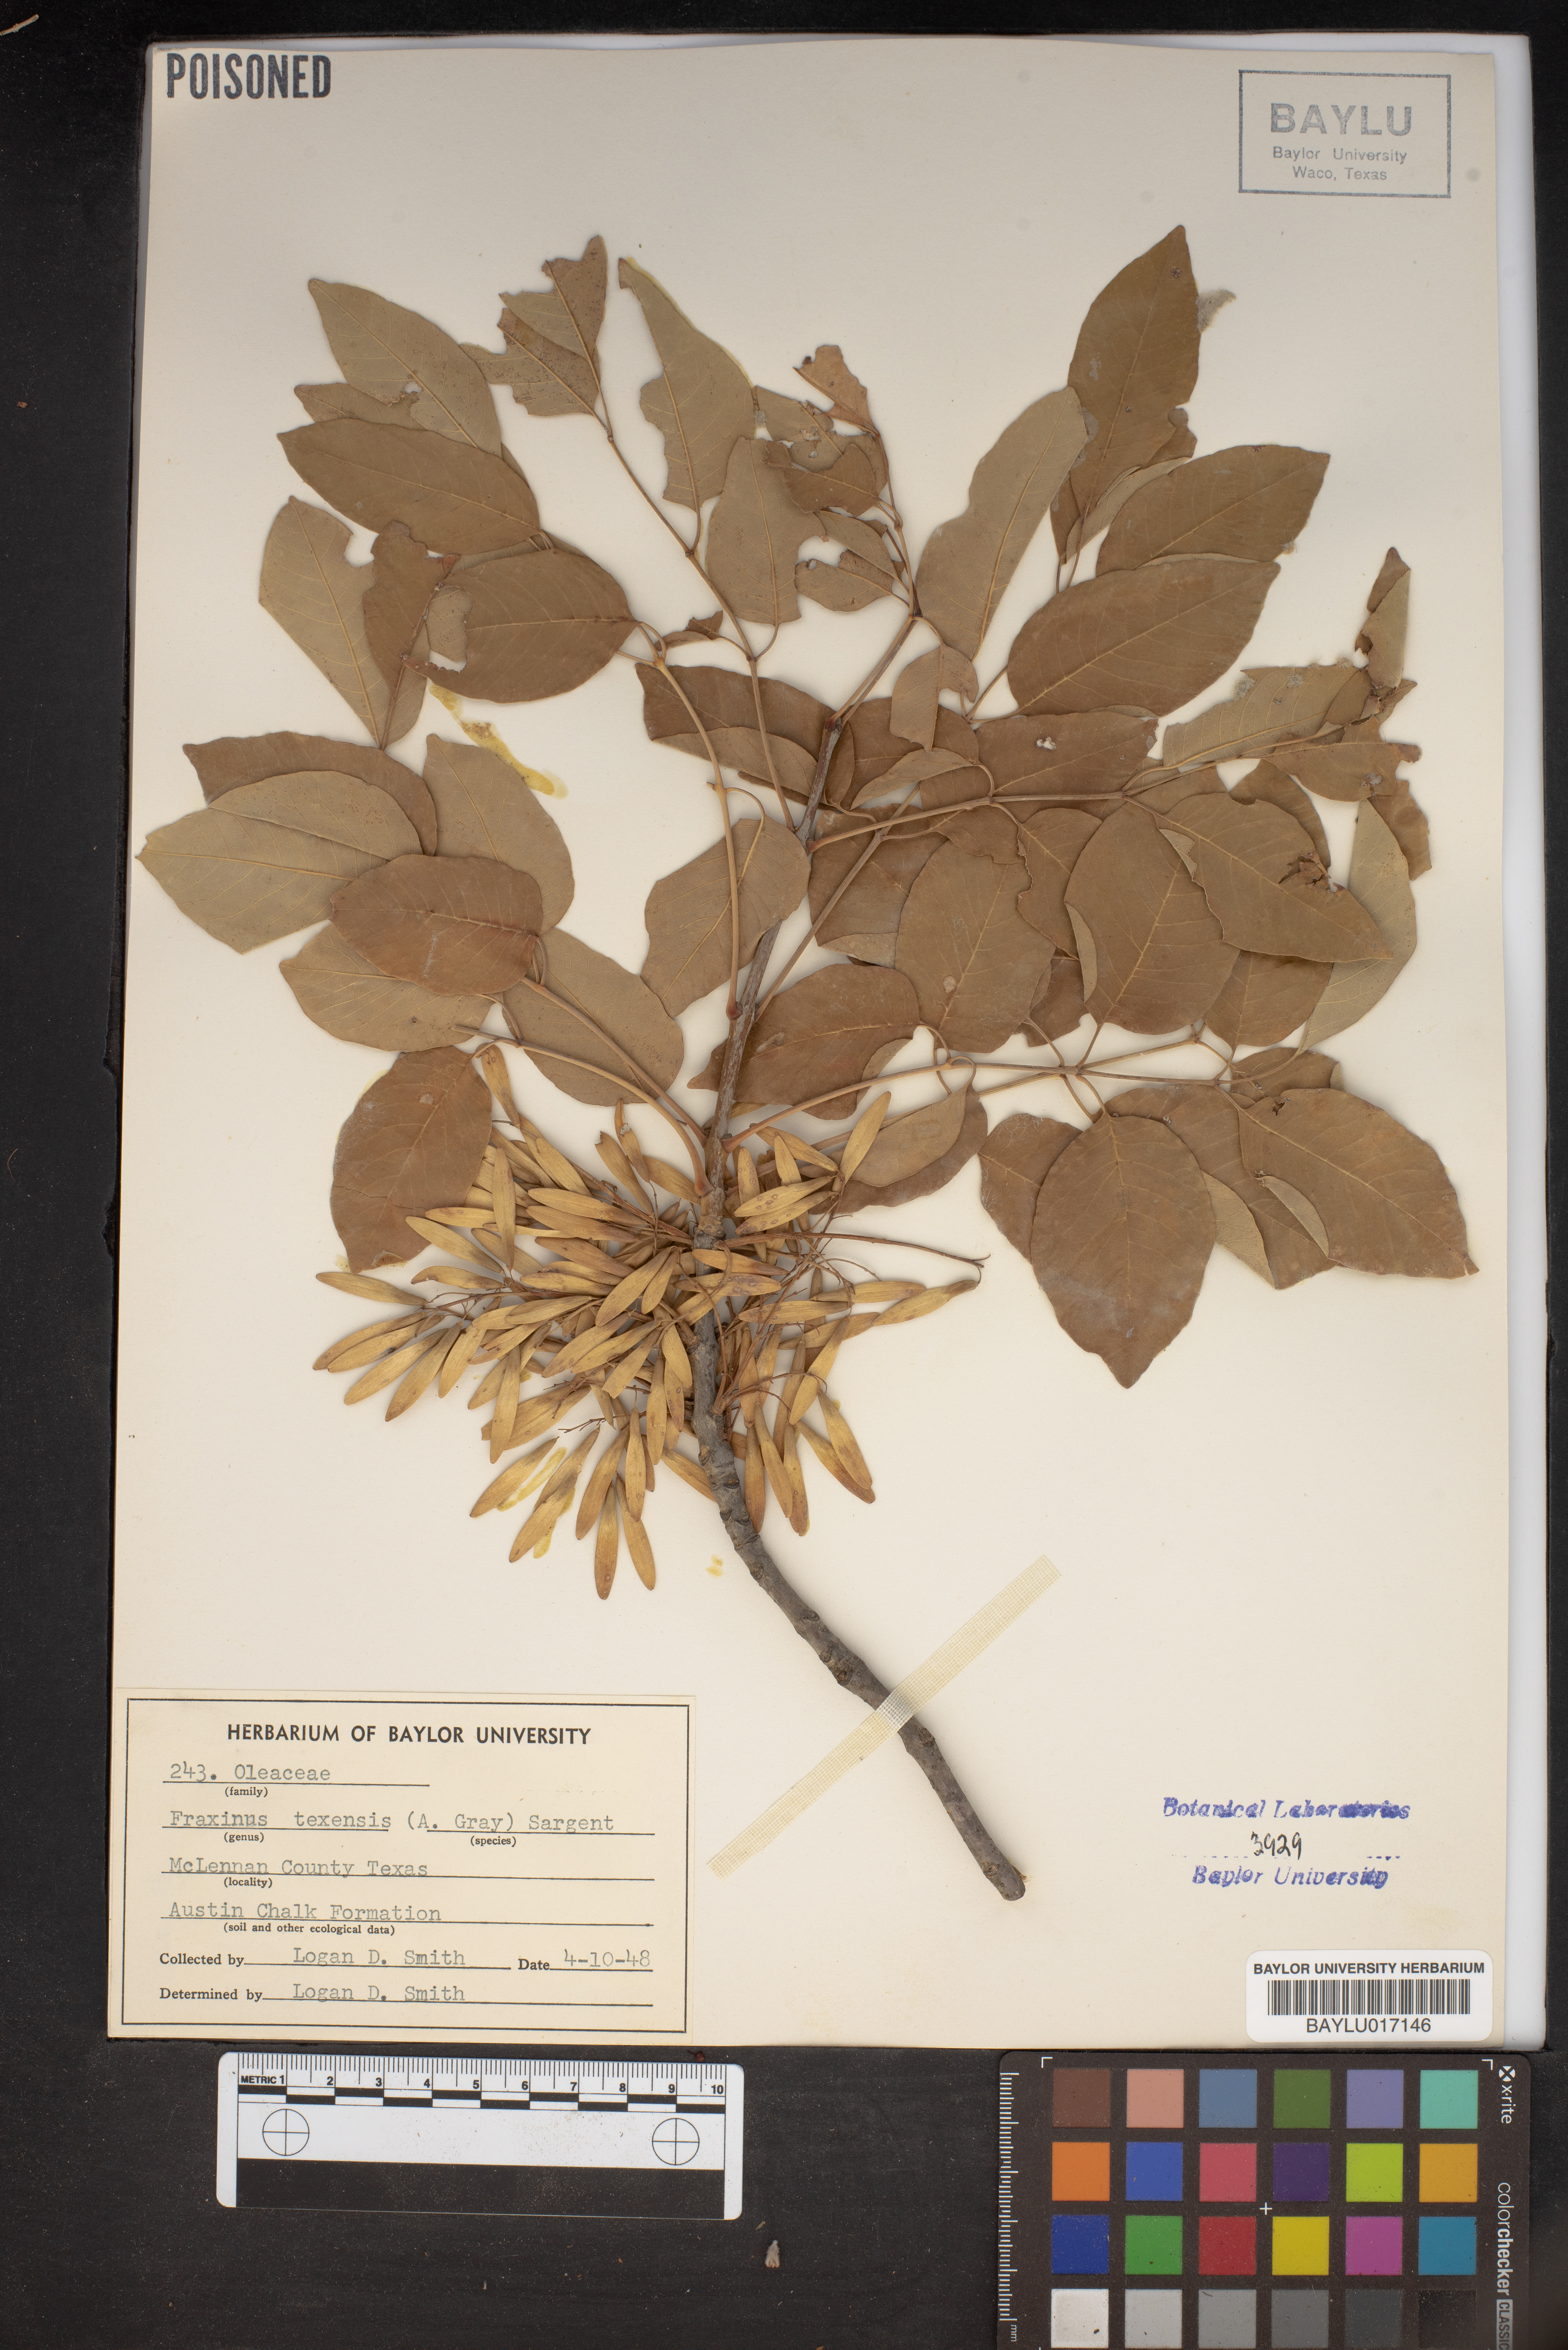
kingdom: Plantae
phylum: Tracheophyta
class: Magnoliopsida
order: Lamiales
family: Oleaceae
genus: Fraxinus
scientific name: Fraxinus albicans
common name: Texas ash
